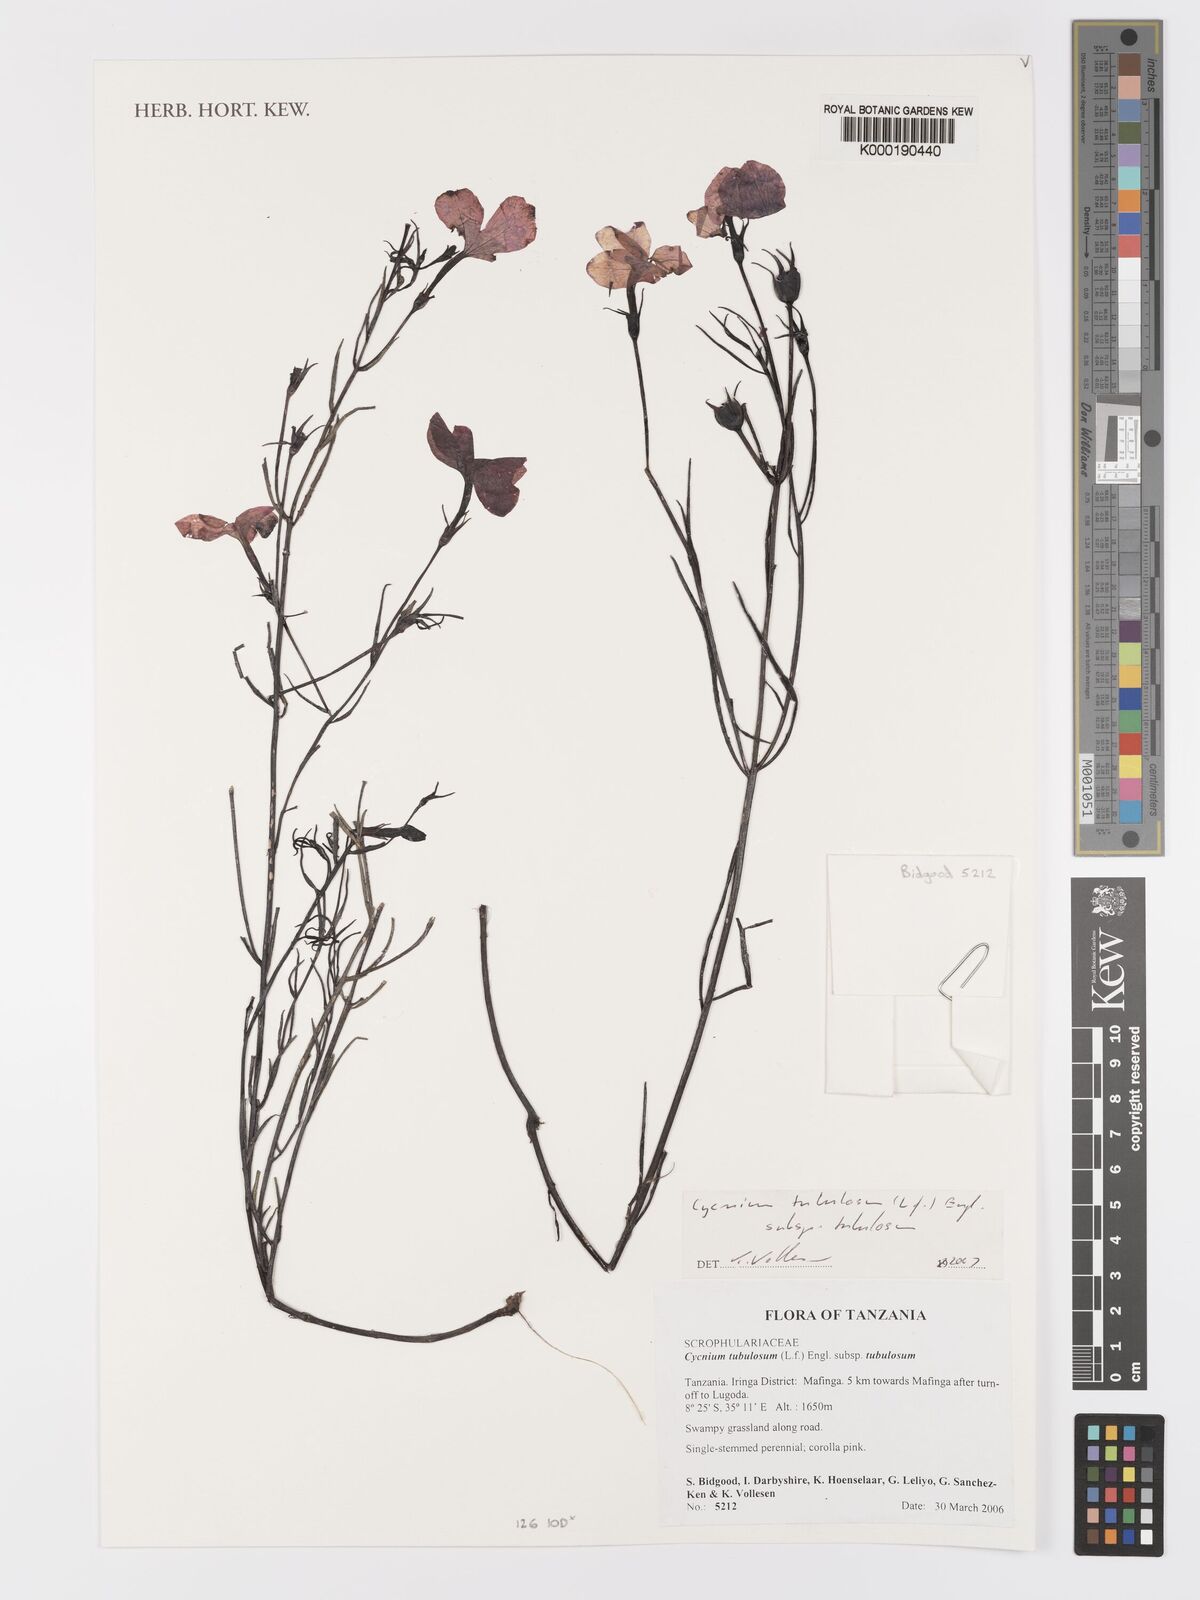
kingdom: Plantae
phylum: Tracheophyta
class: Magnoliopsida
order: Lamiales
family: Orobanchaceae
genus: Cycnium
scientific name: Cycnium tubulosum
